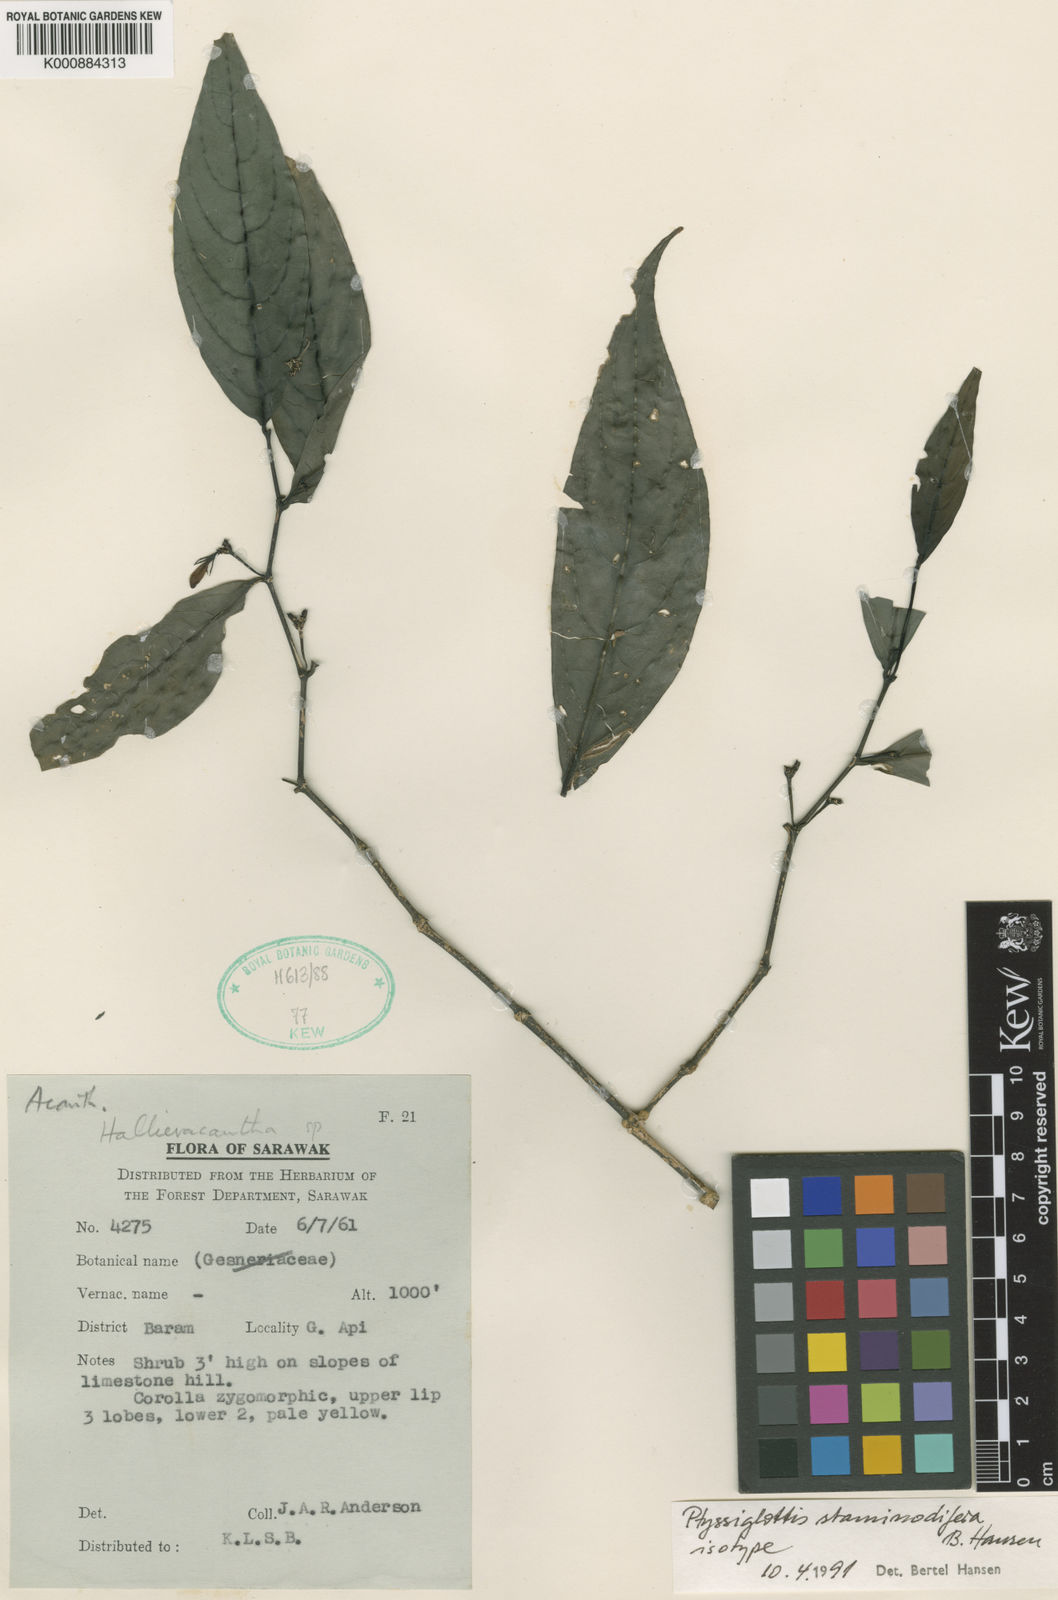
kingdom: Plantae
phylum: Tracheophyta
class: Magnoliopsida
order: Lamiales
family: Acanthaceae
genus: Ptyssiglottis
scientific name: Ptyssiglottis staminodifera
